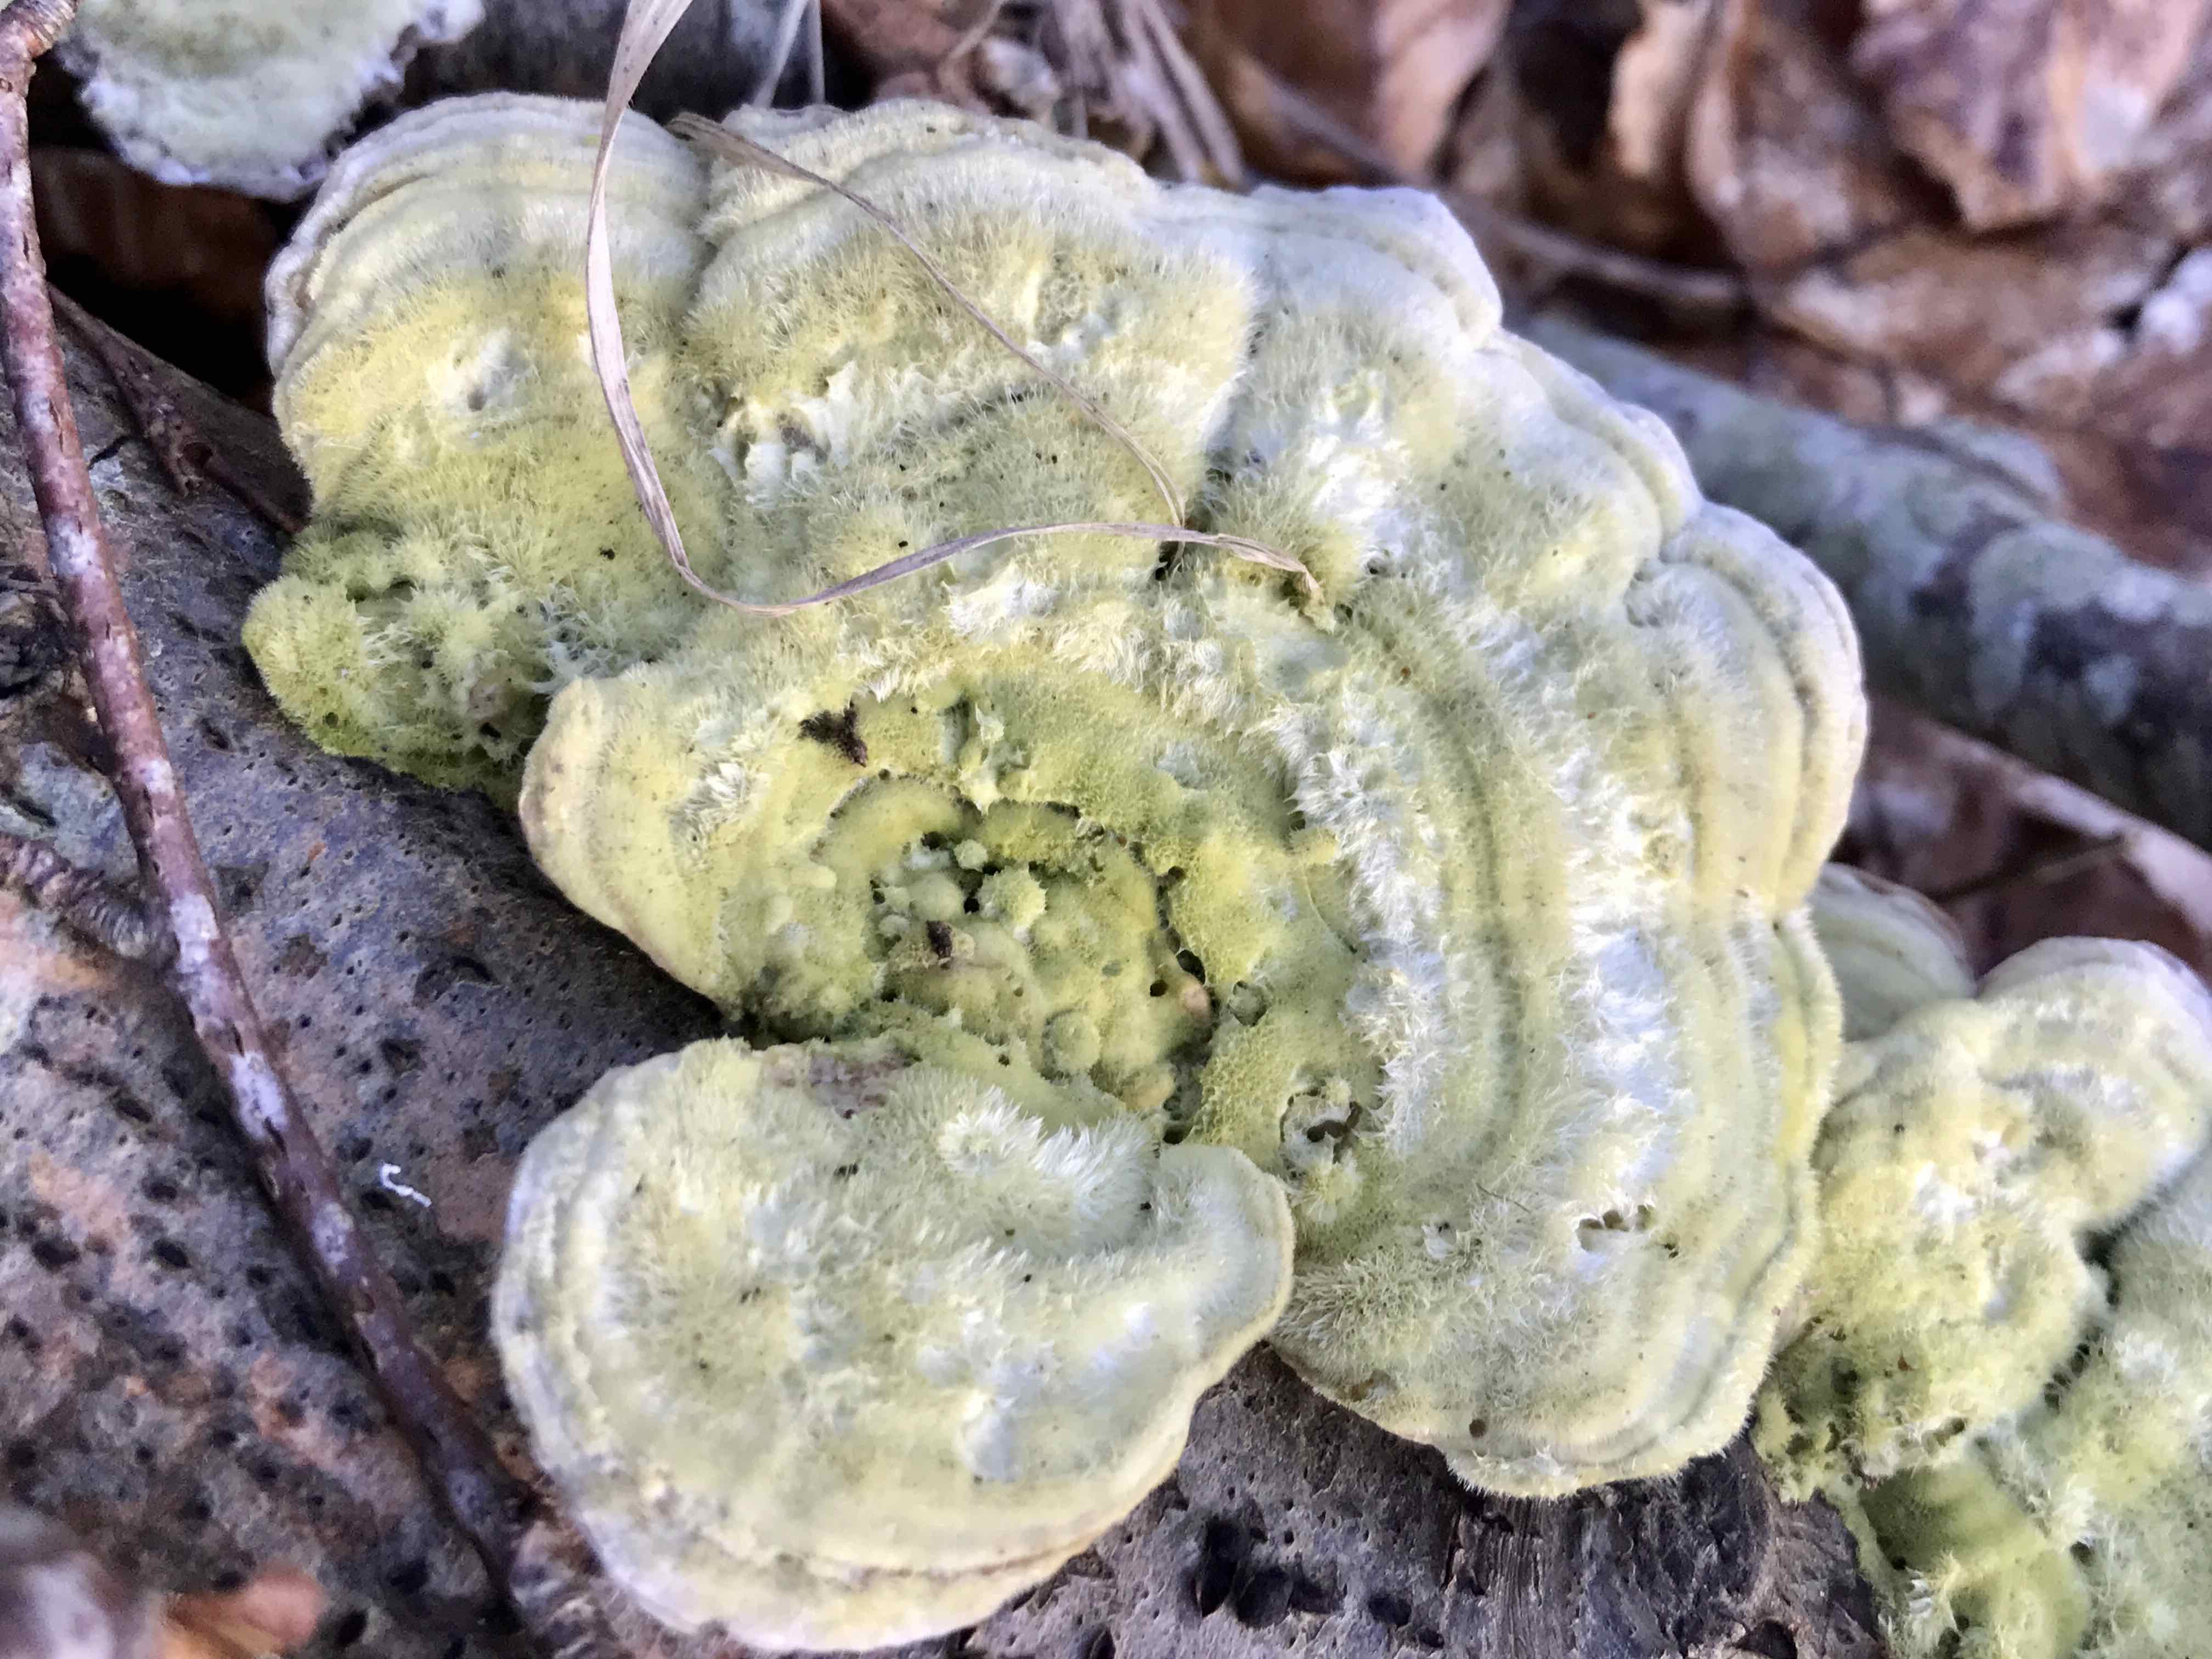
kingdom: Fungi
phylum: Basidiomycota
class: Agaricomycetes
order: Polyporales
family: Polyporaceae
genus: Trametes
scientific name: Trametes hirsuta
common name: håret læderporesvamp
